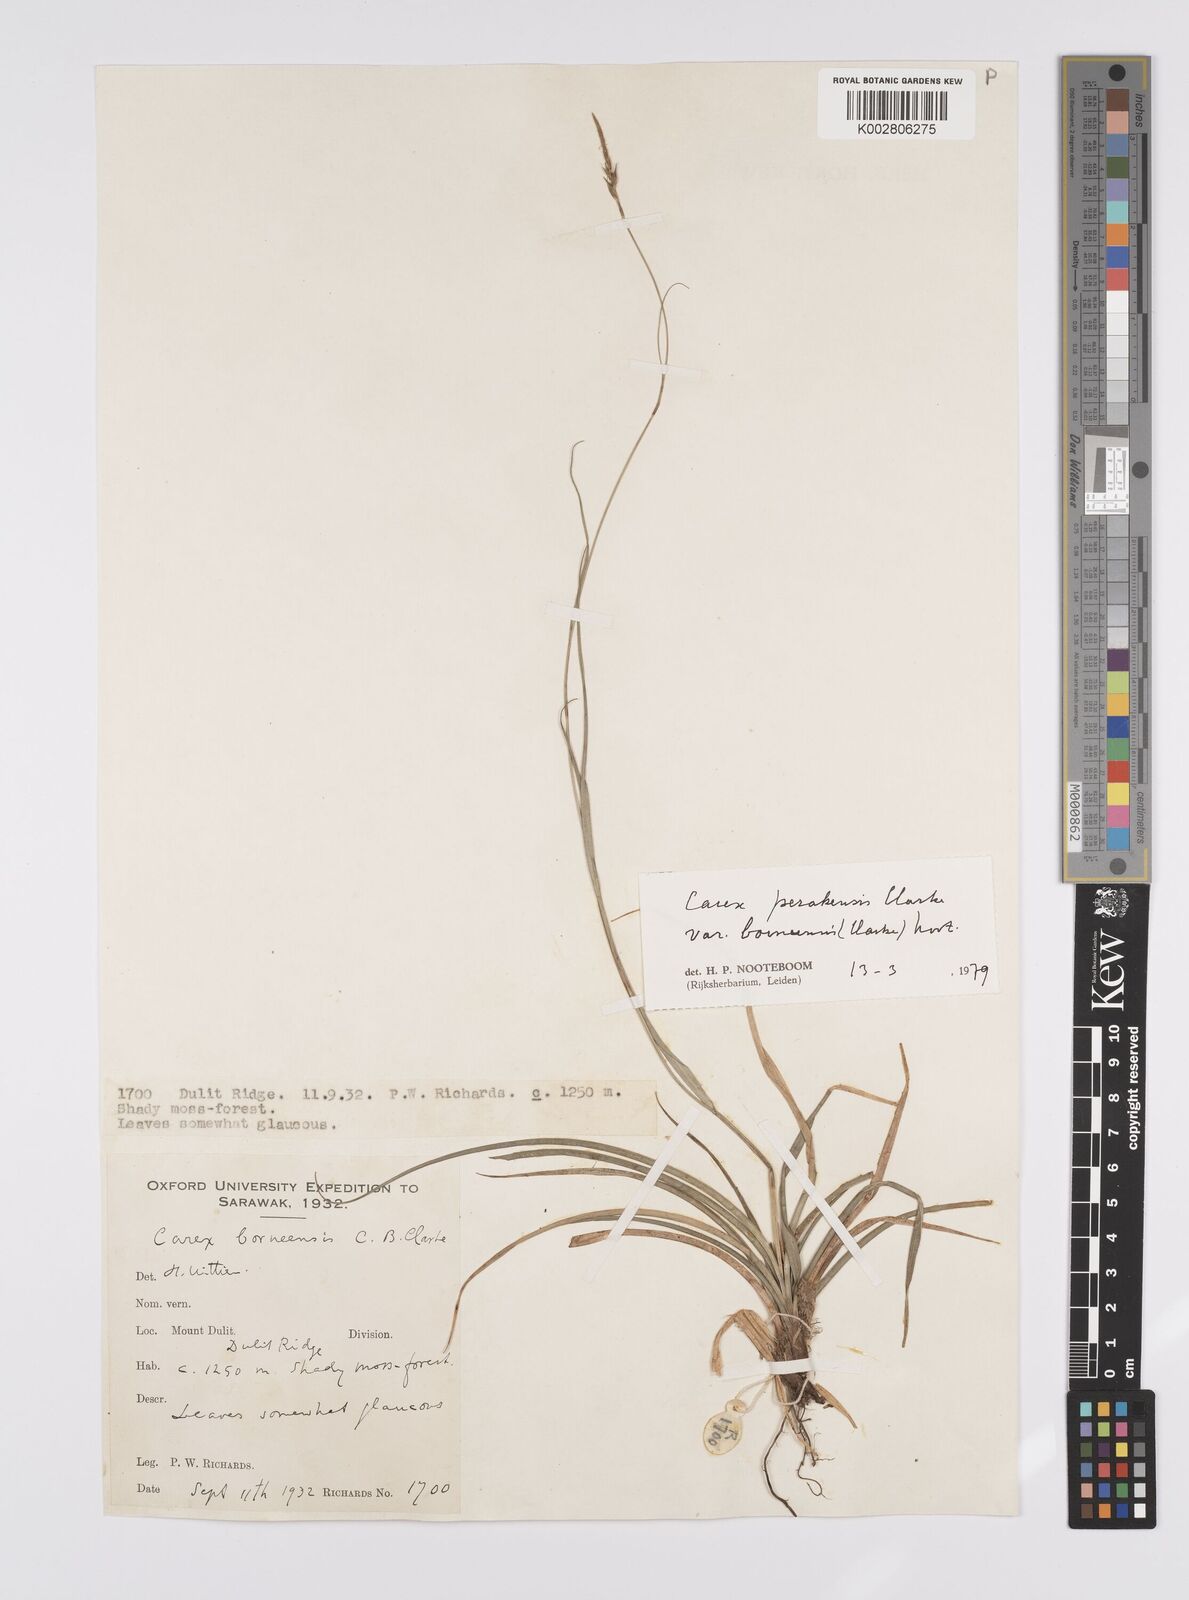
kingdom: Plantae
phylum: Tracheophyta
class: Liliopsida
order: Poales
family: Cyperaceae
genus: Carex
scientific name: Carex perakensis
